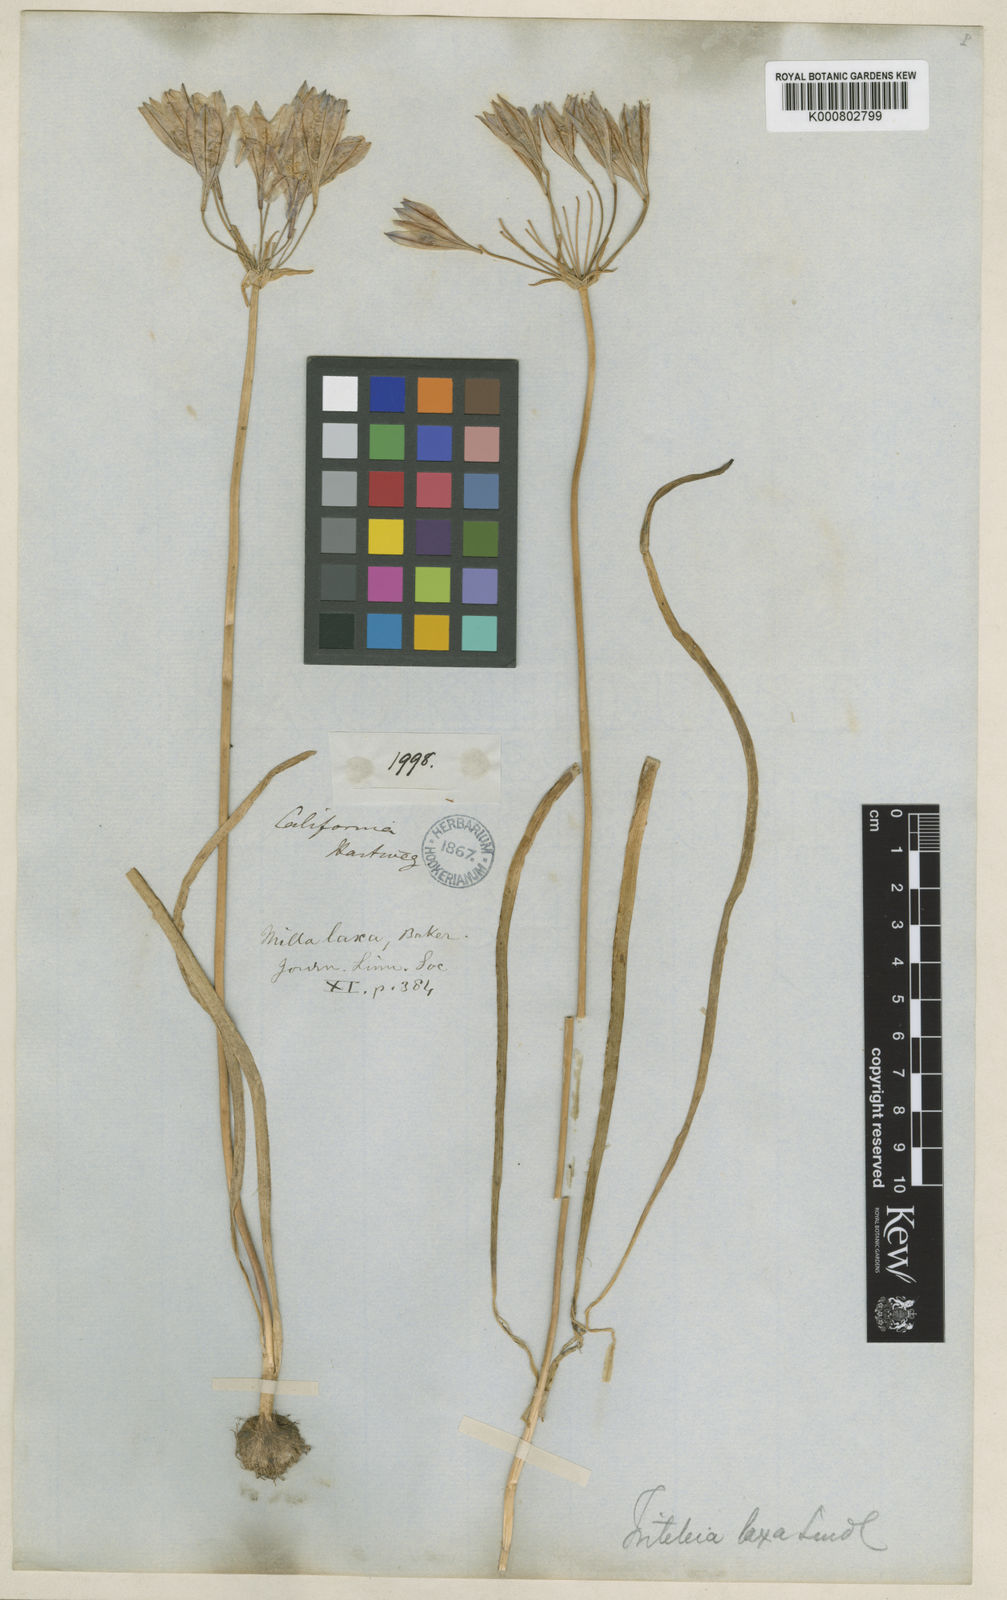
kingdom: Plantae
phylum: Tracheophyta
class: Liliopsida
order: Asparagales
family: Asparagaceae
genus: Triteleia
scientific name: Triteleia laxa
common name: Triplet-lily
